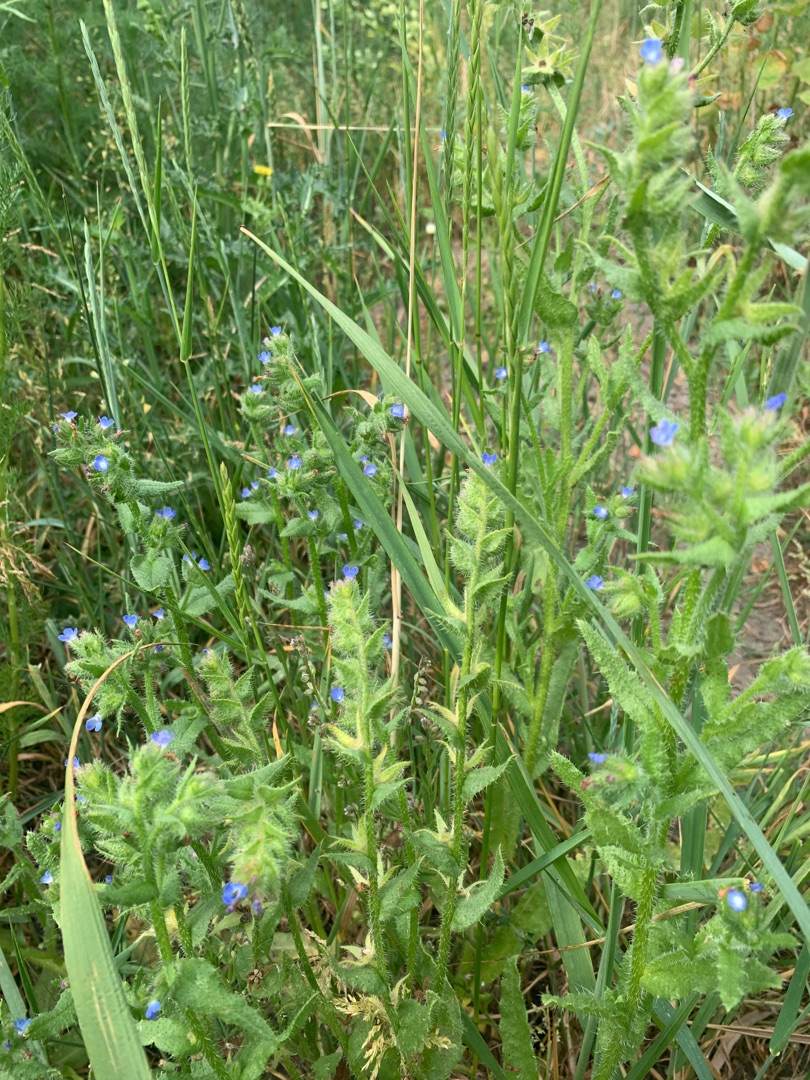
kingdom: Plantae
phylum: Tracheophyta
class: Magnoliopsida
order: Boraginales
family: Boraginaceae
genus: Lycopsis
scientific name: Lycopsis arvensis
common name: Krumhals
